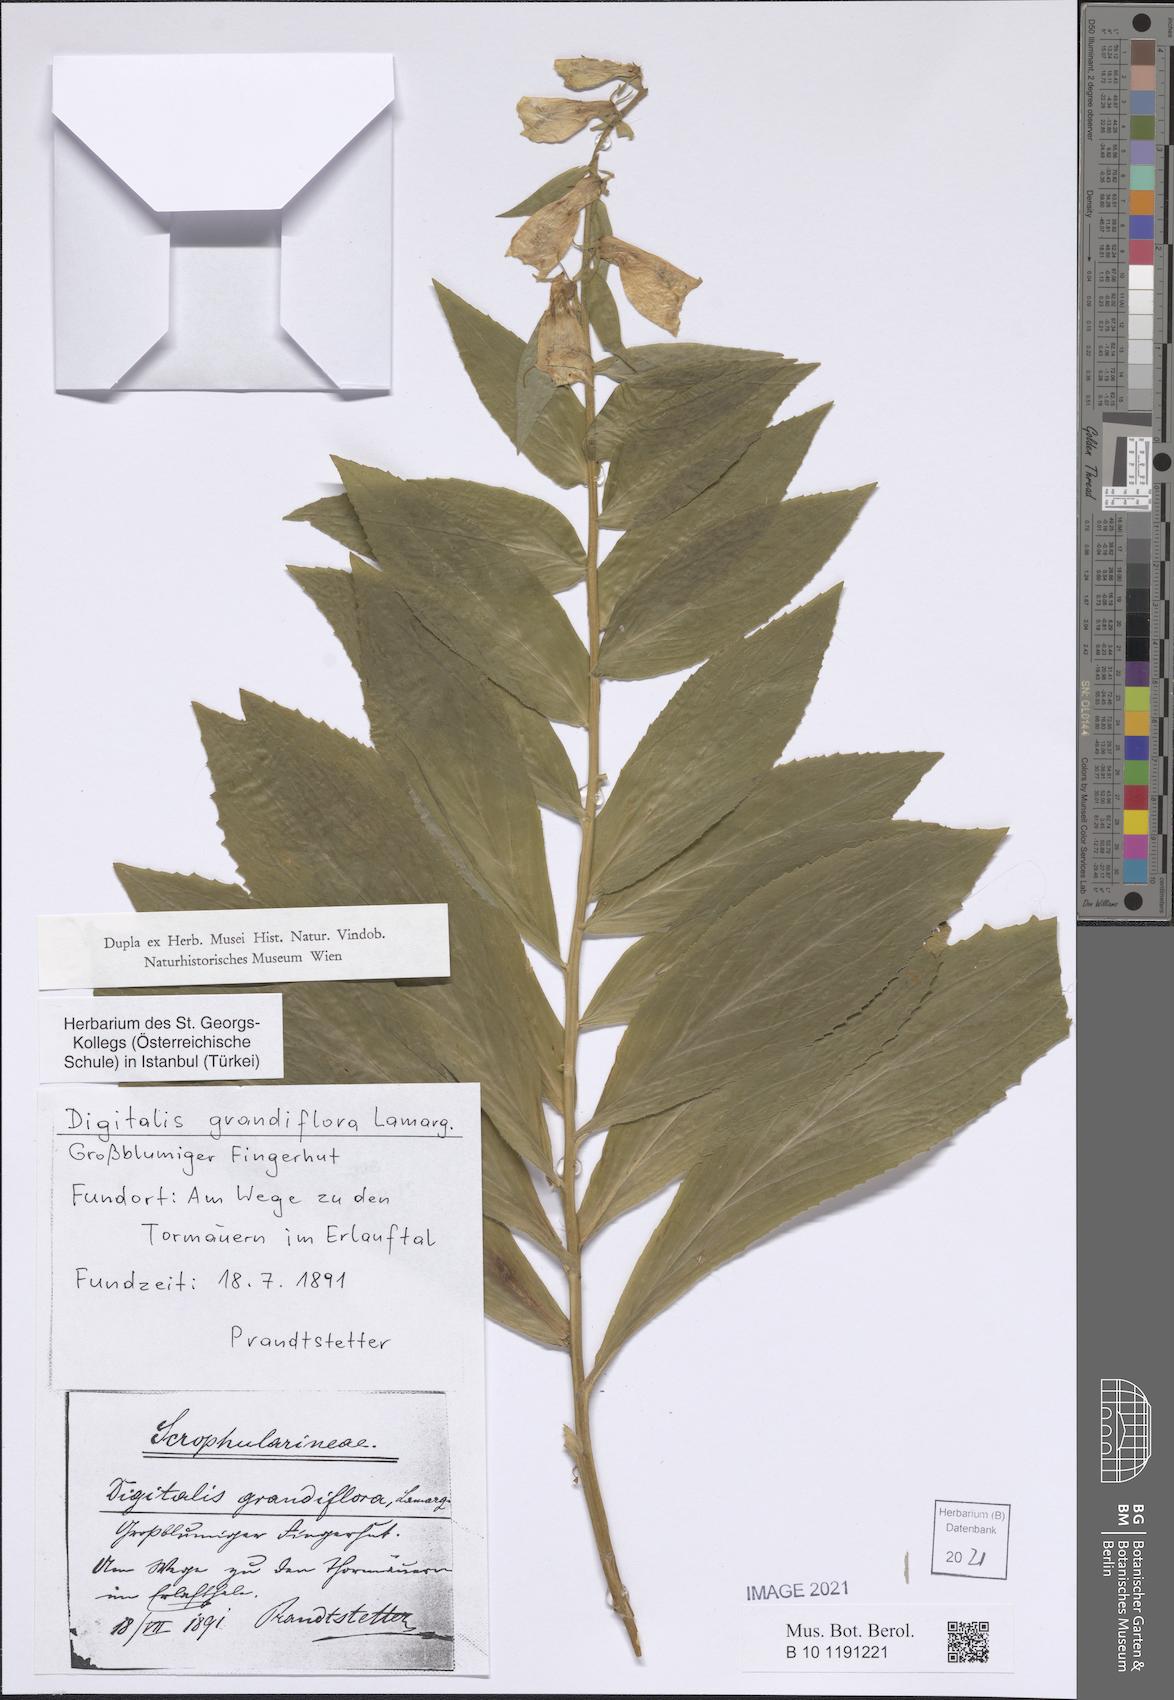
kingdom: Plantae
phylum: Tracheophyta
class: Magnoliopsida
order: Lamiales
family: Plantaginaceae
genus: Digitalis
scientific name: Digitalis grandiflora
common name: Yellow foxglove
